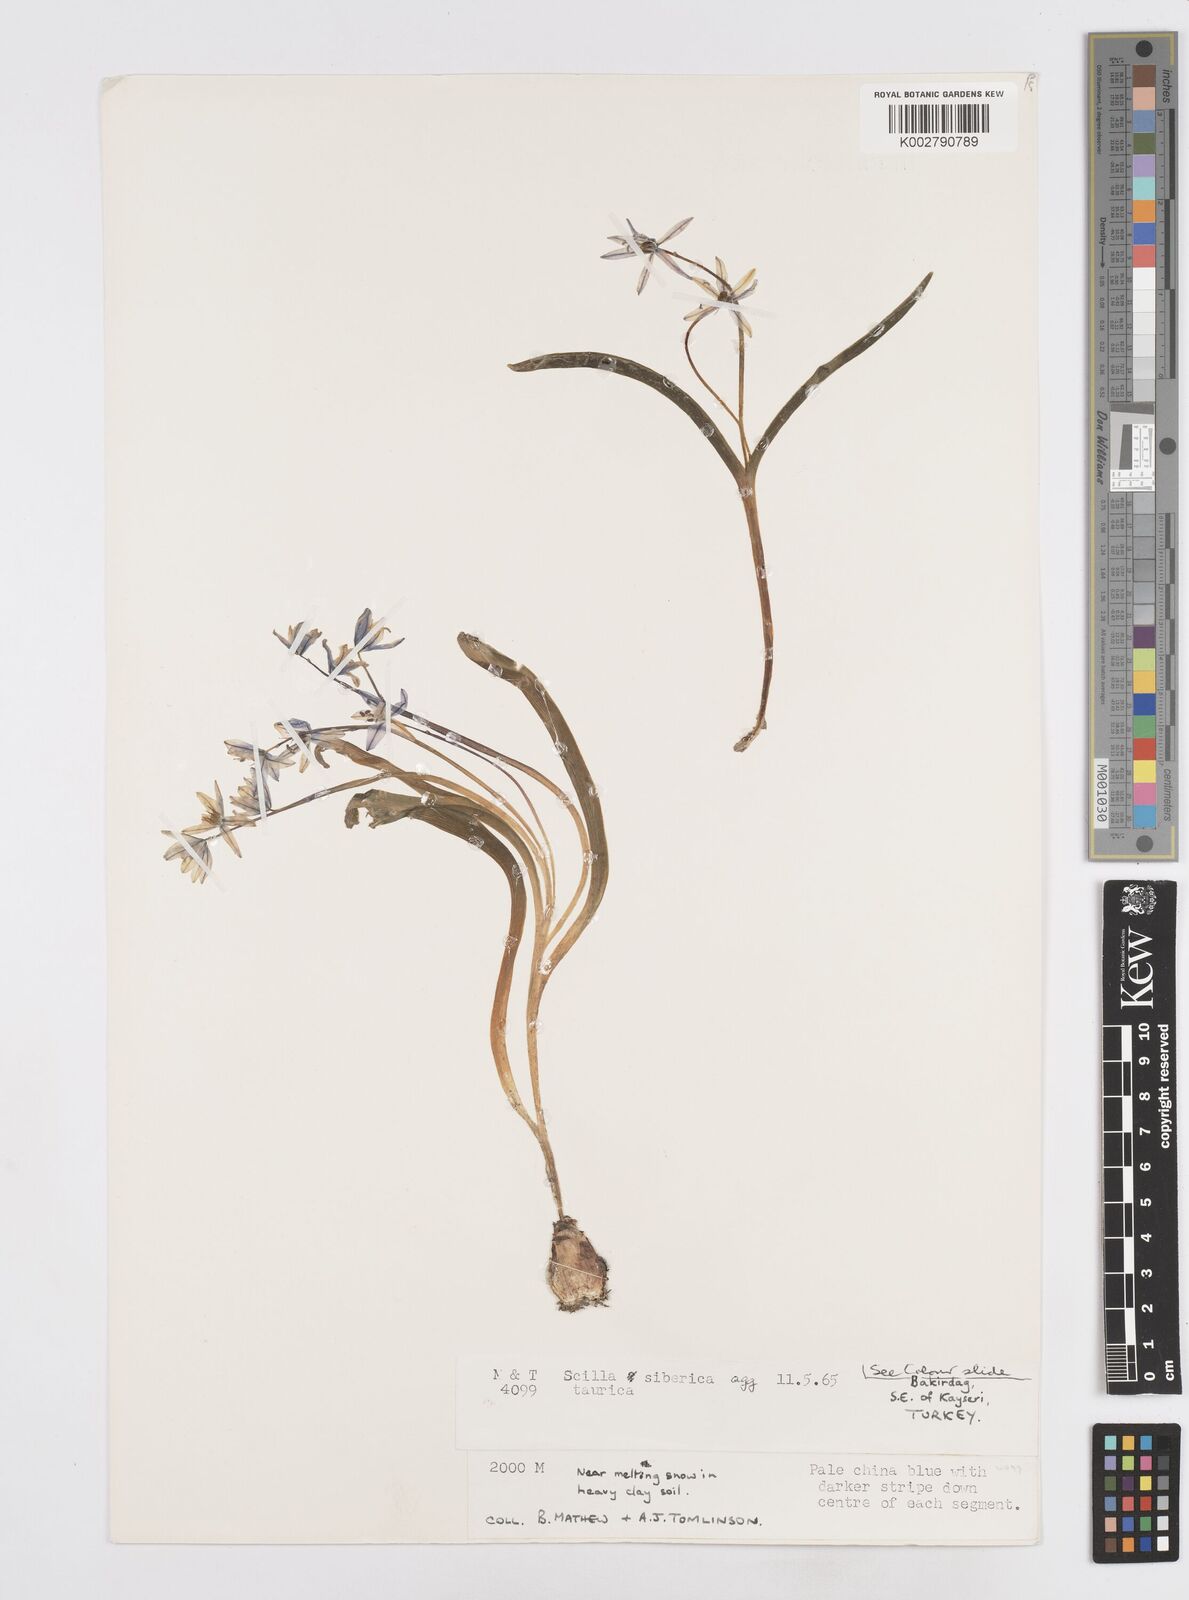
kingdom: Plantae
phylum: Tracheophyta
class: Liliopsida
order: Asparagales
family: Asparagaceae
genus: Scilla
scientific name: Scilla siberica
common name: Siberian squill
